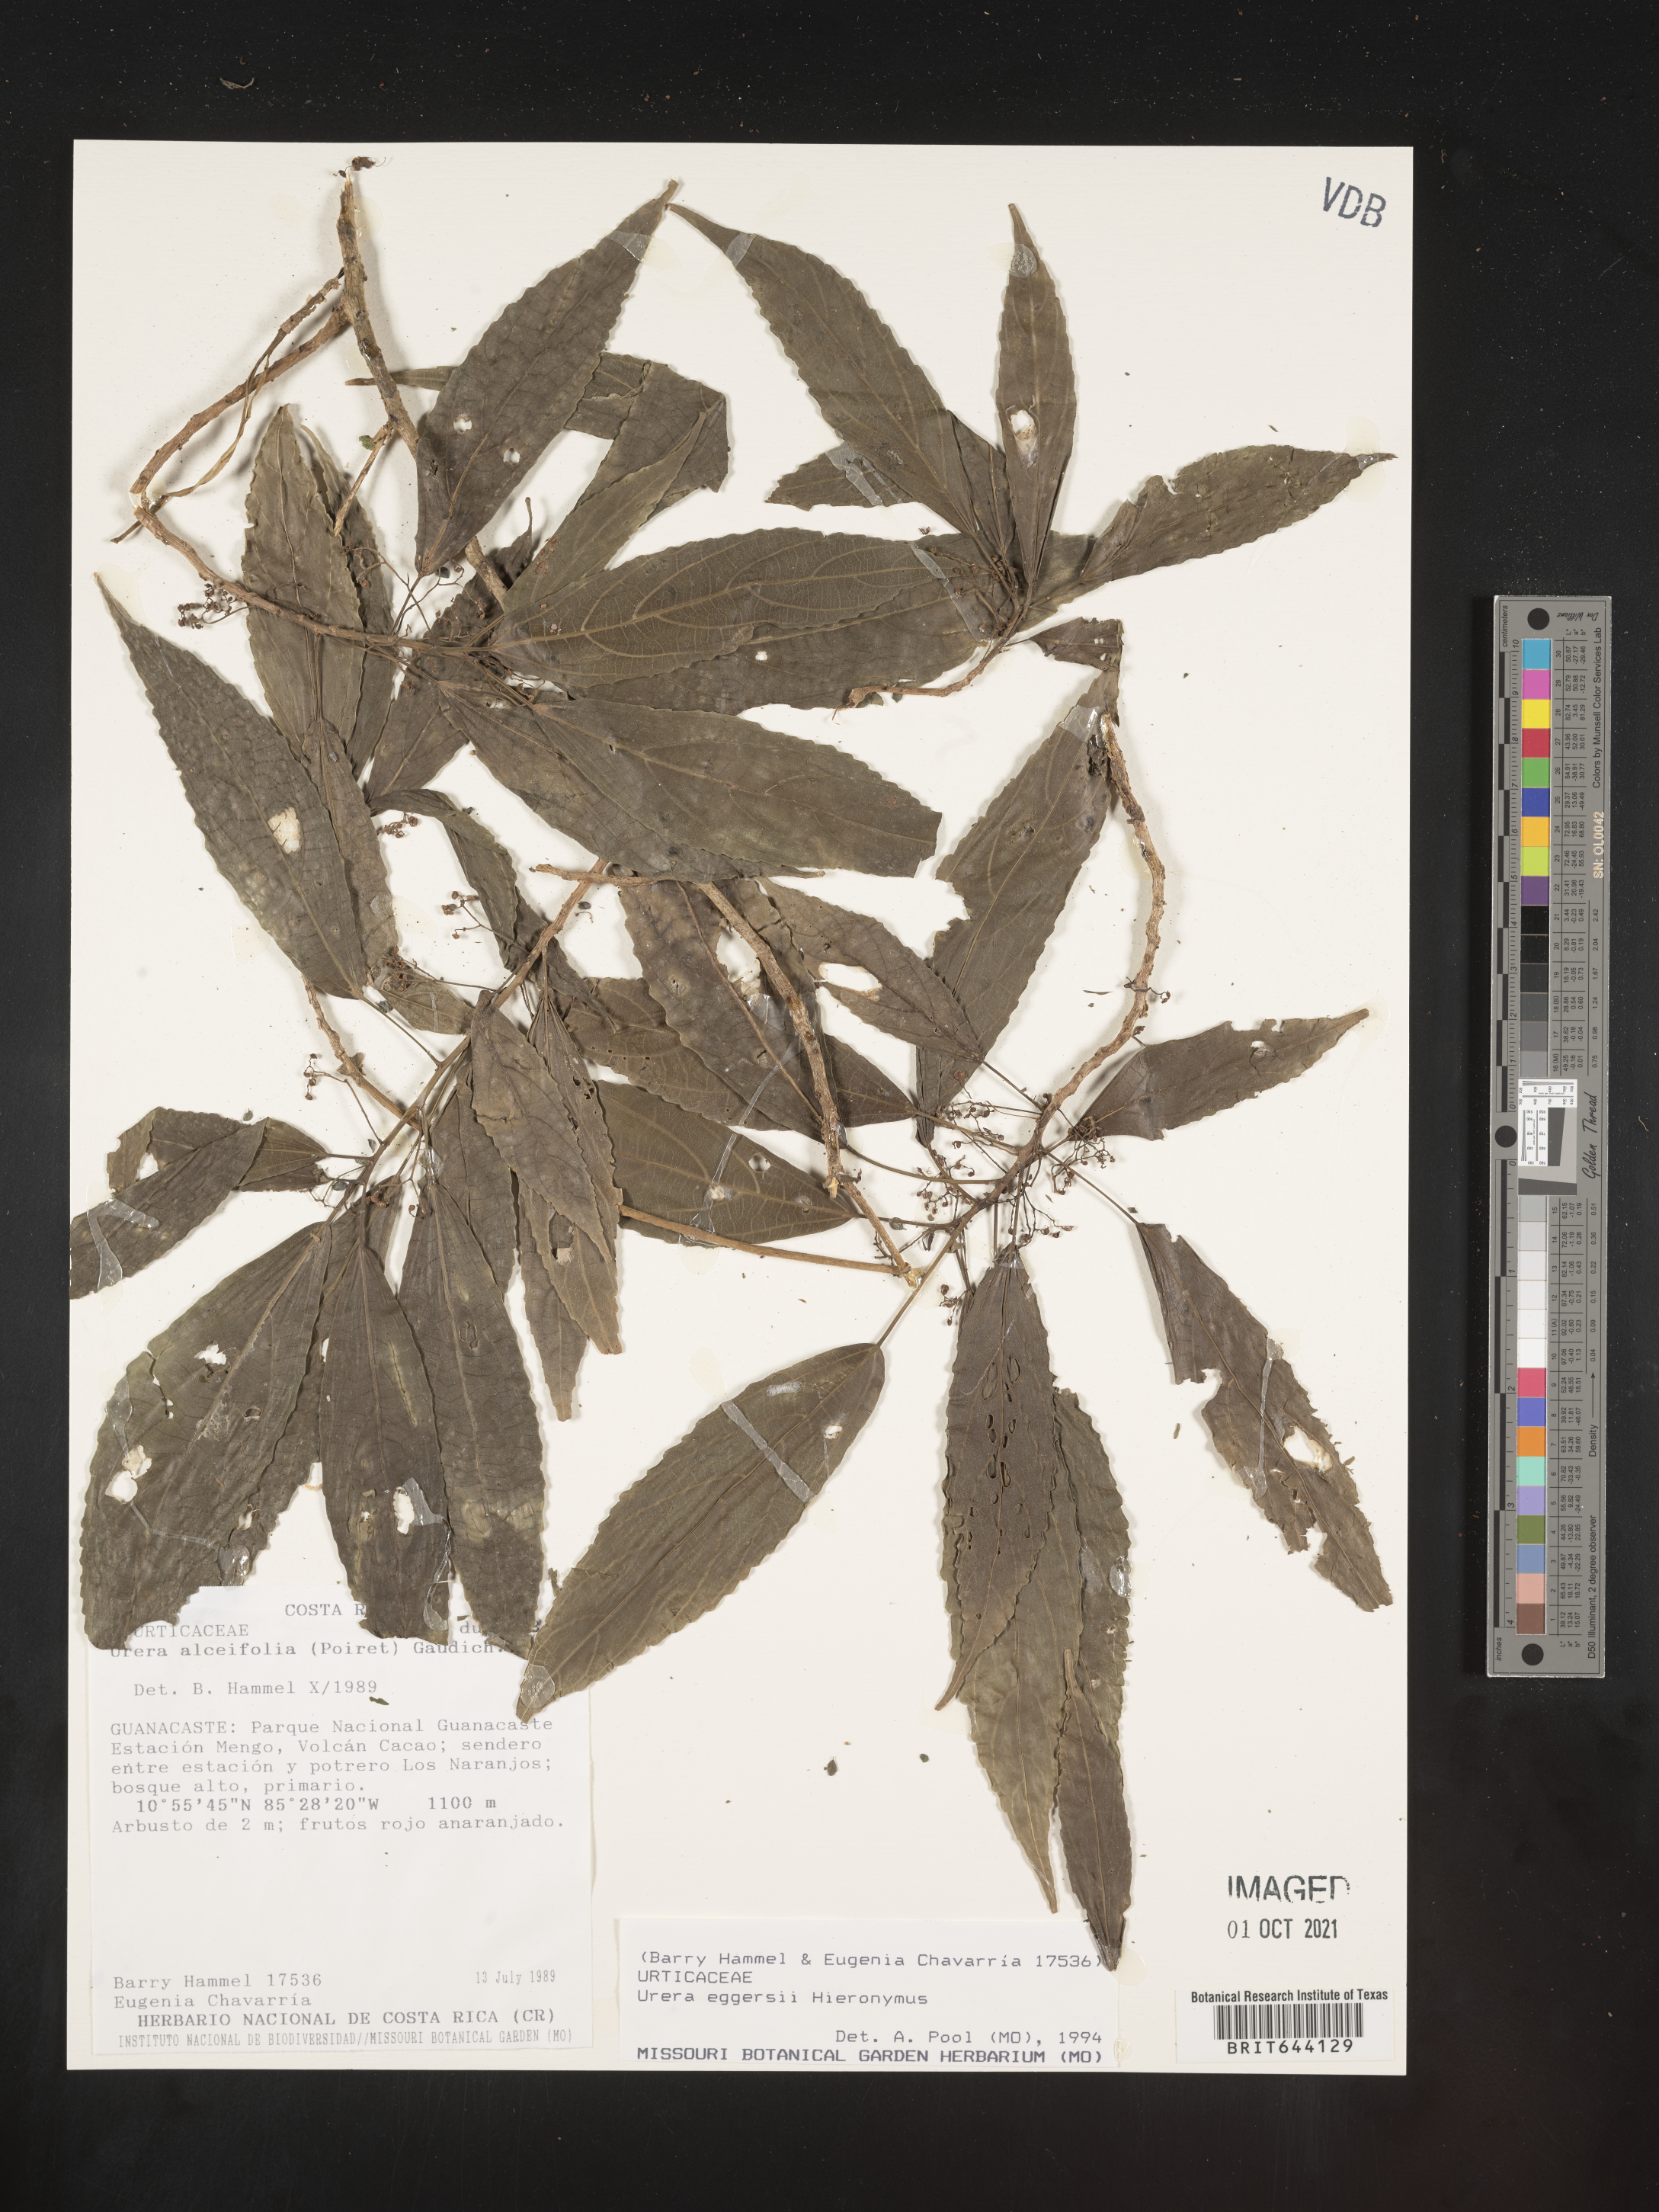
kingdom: Plantae
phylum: Tracheophyta
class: Magnoliopsida
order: Rosales
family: Urticaceae
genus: Pilea
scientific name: Pilea
